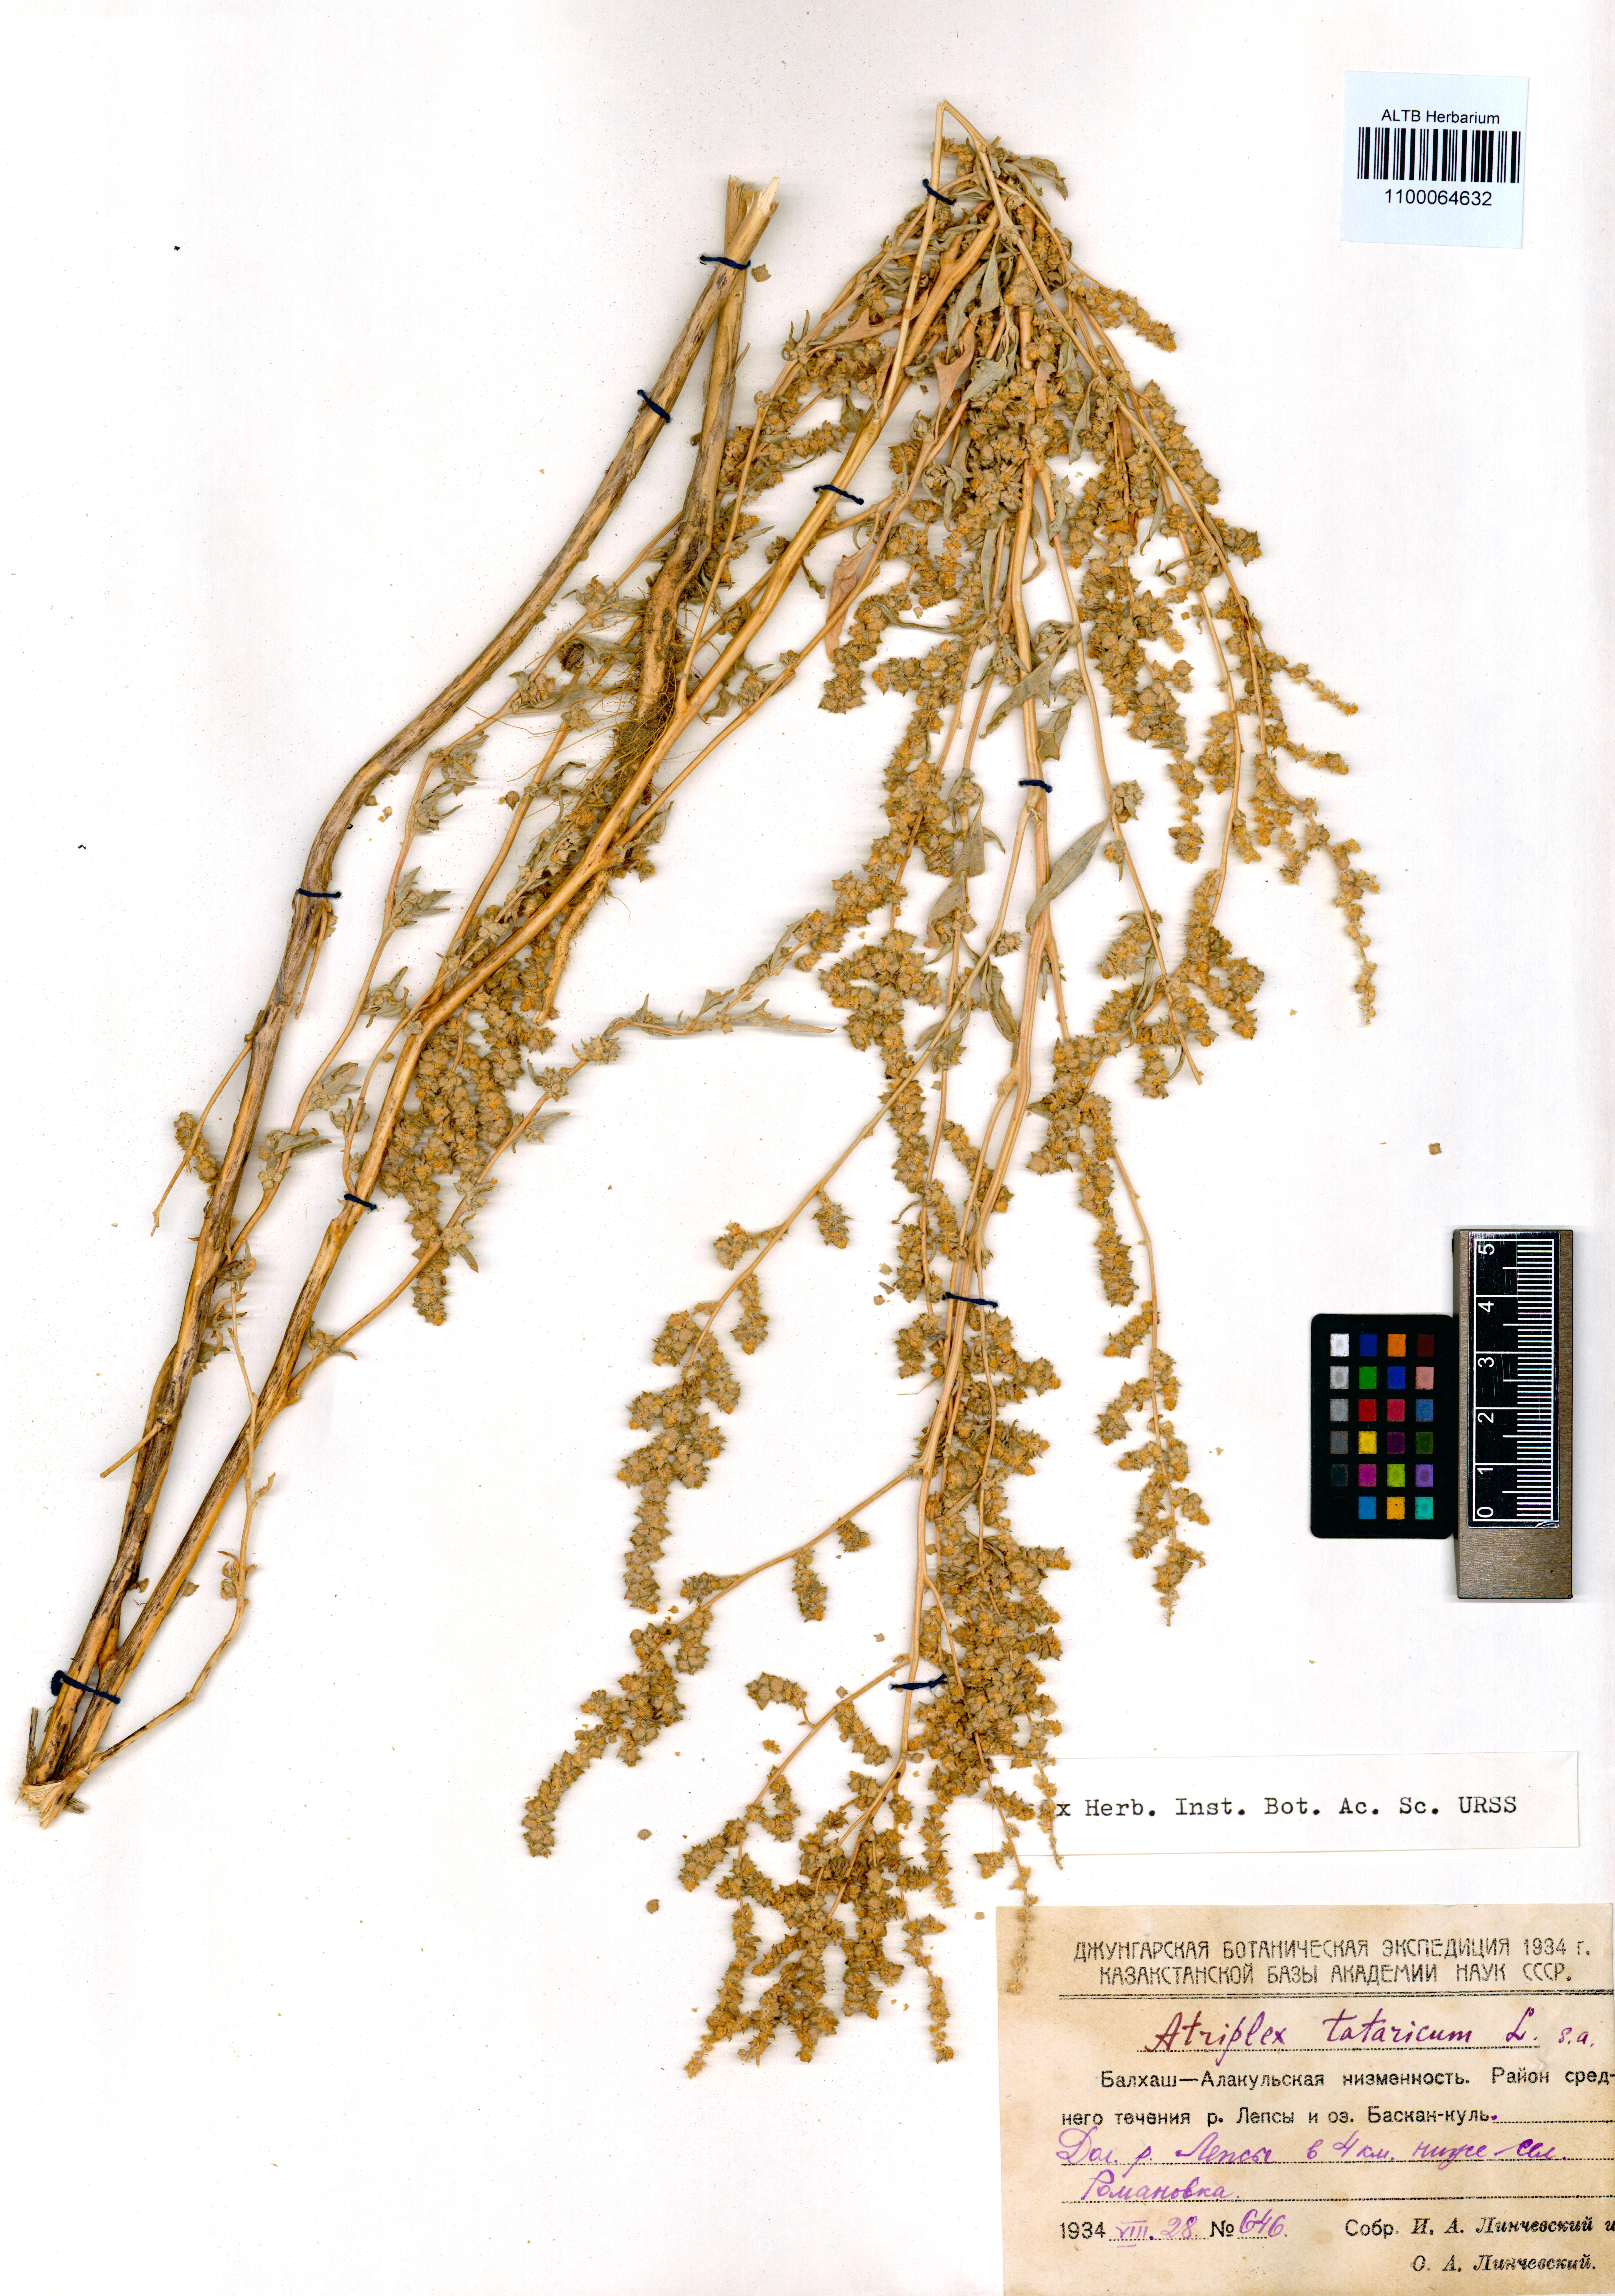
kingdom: Plantae
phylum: Tracheophyta
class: Magnoliopsida
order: Caryophyllales
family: Amaranthaceae
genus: Atriplex
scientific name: Atriplex tatarica
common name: Tatarian orache
